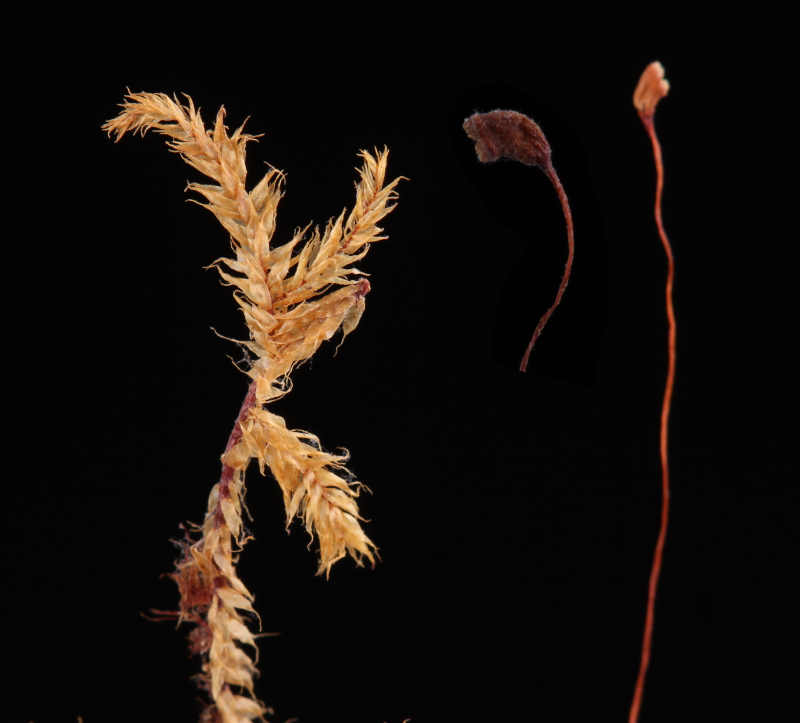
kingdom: Plantae
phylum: Bryophyta
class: Bryopsida
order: Hypnales
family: Pylaisiadelphaceae
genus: Wijkia
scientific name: Wijkia laxa
